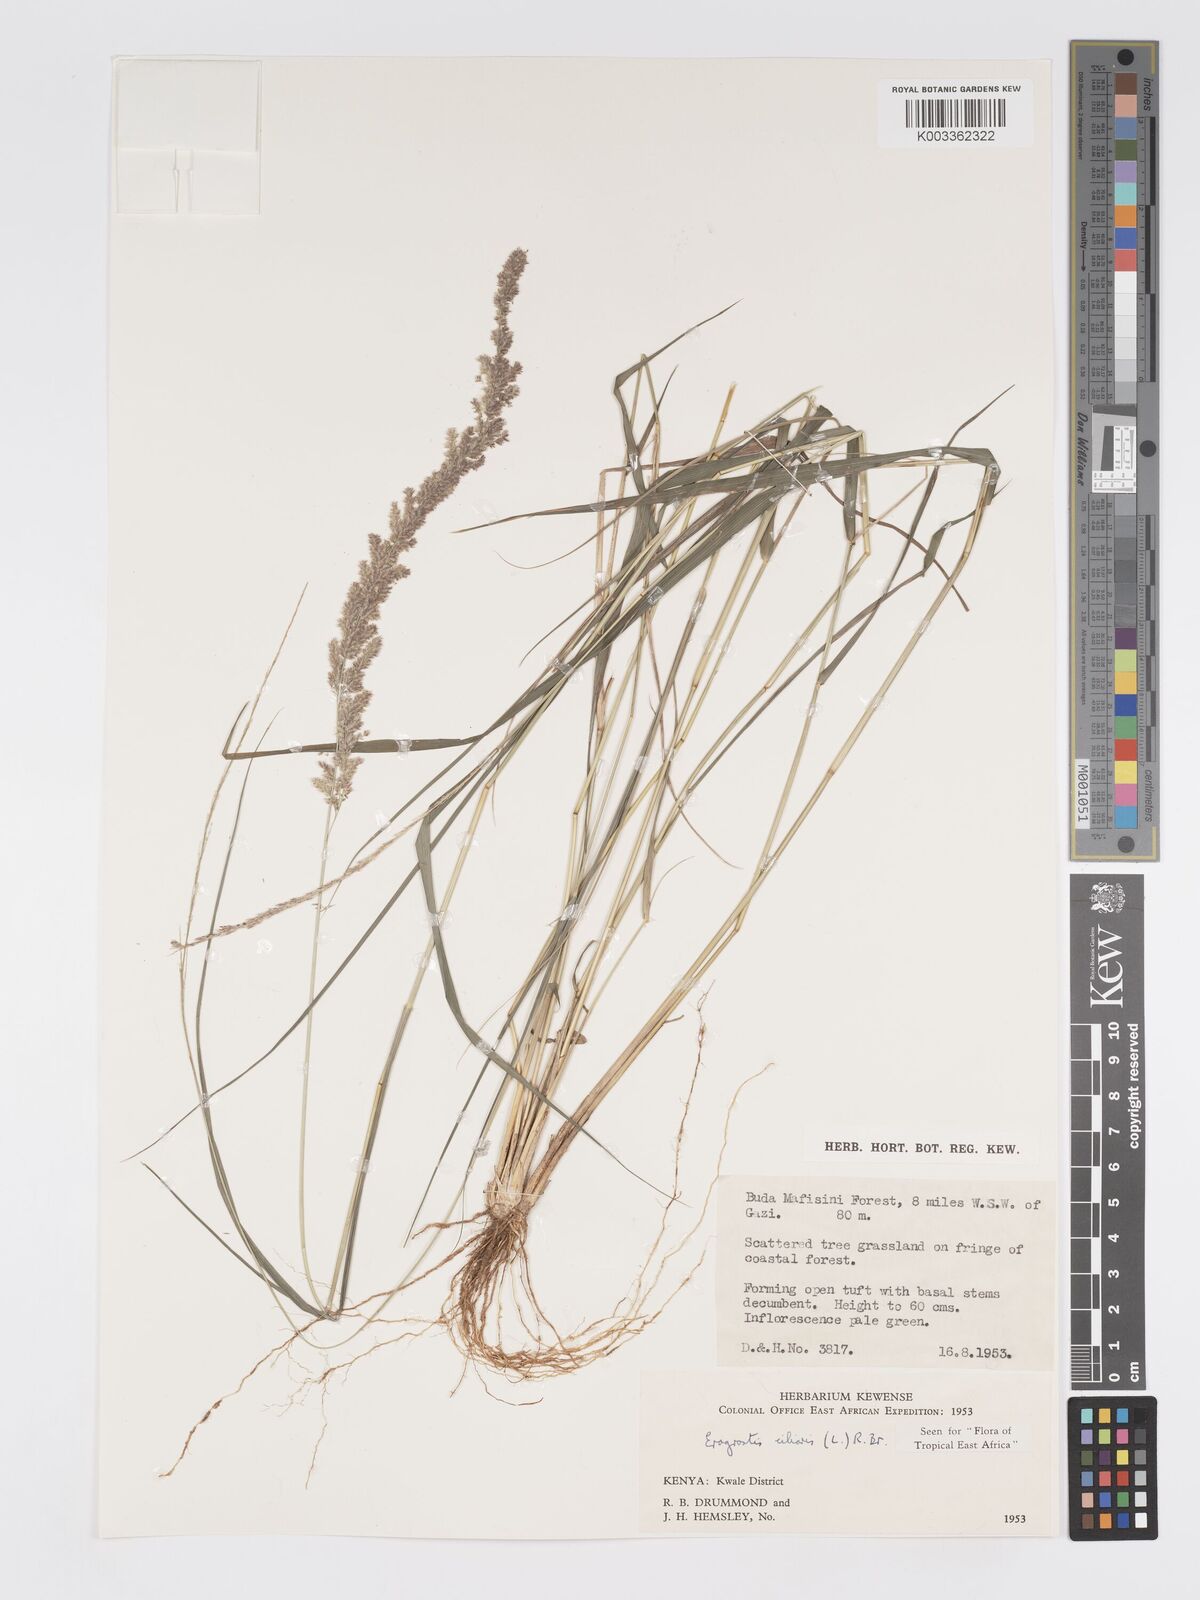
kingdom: Plantae
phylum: Tracheophyta
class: Liliopsida
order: Poales
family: Poaceae
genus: Eragrostis
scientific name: Eragrostis ciliaris
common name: Gophertail lovegrass
